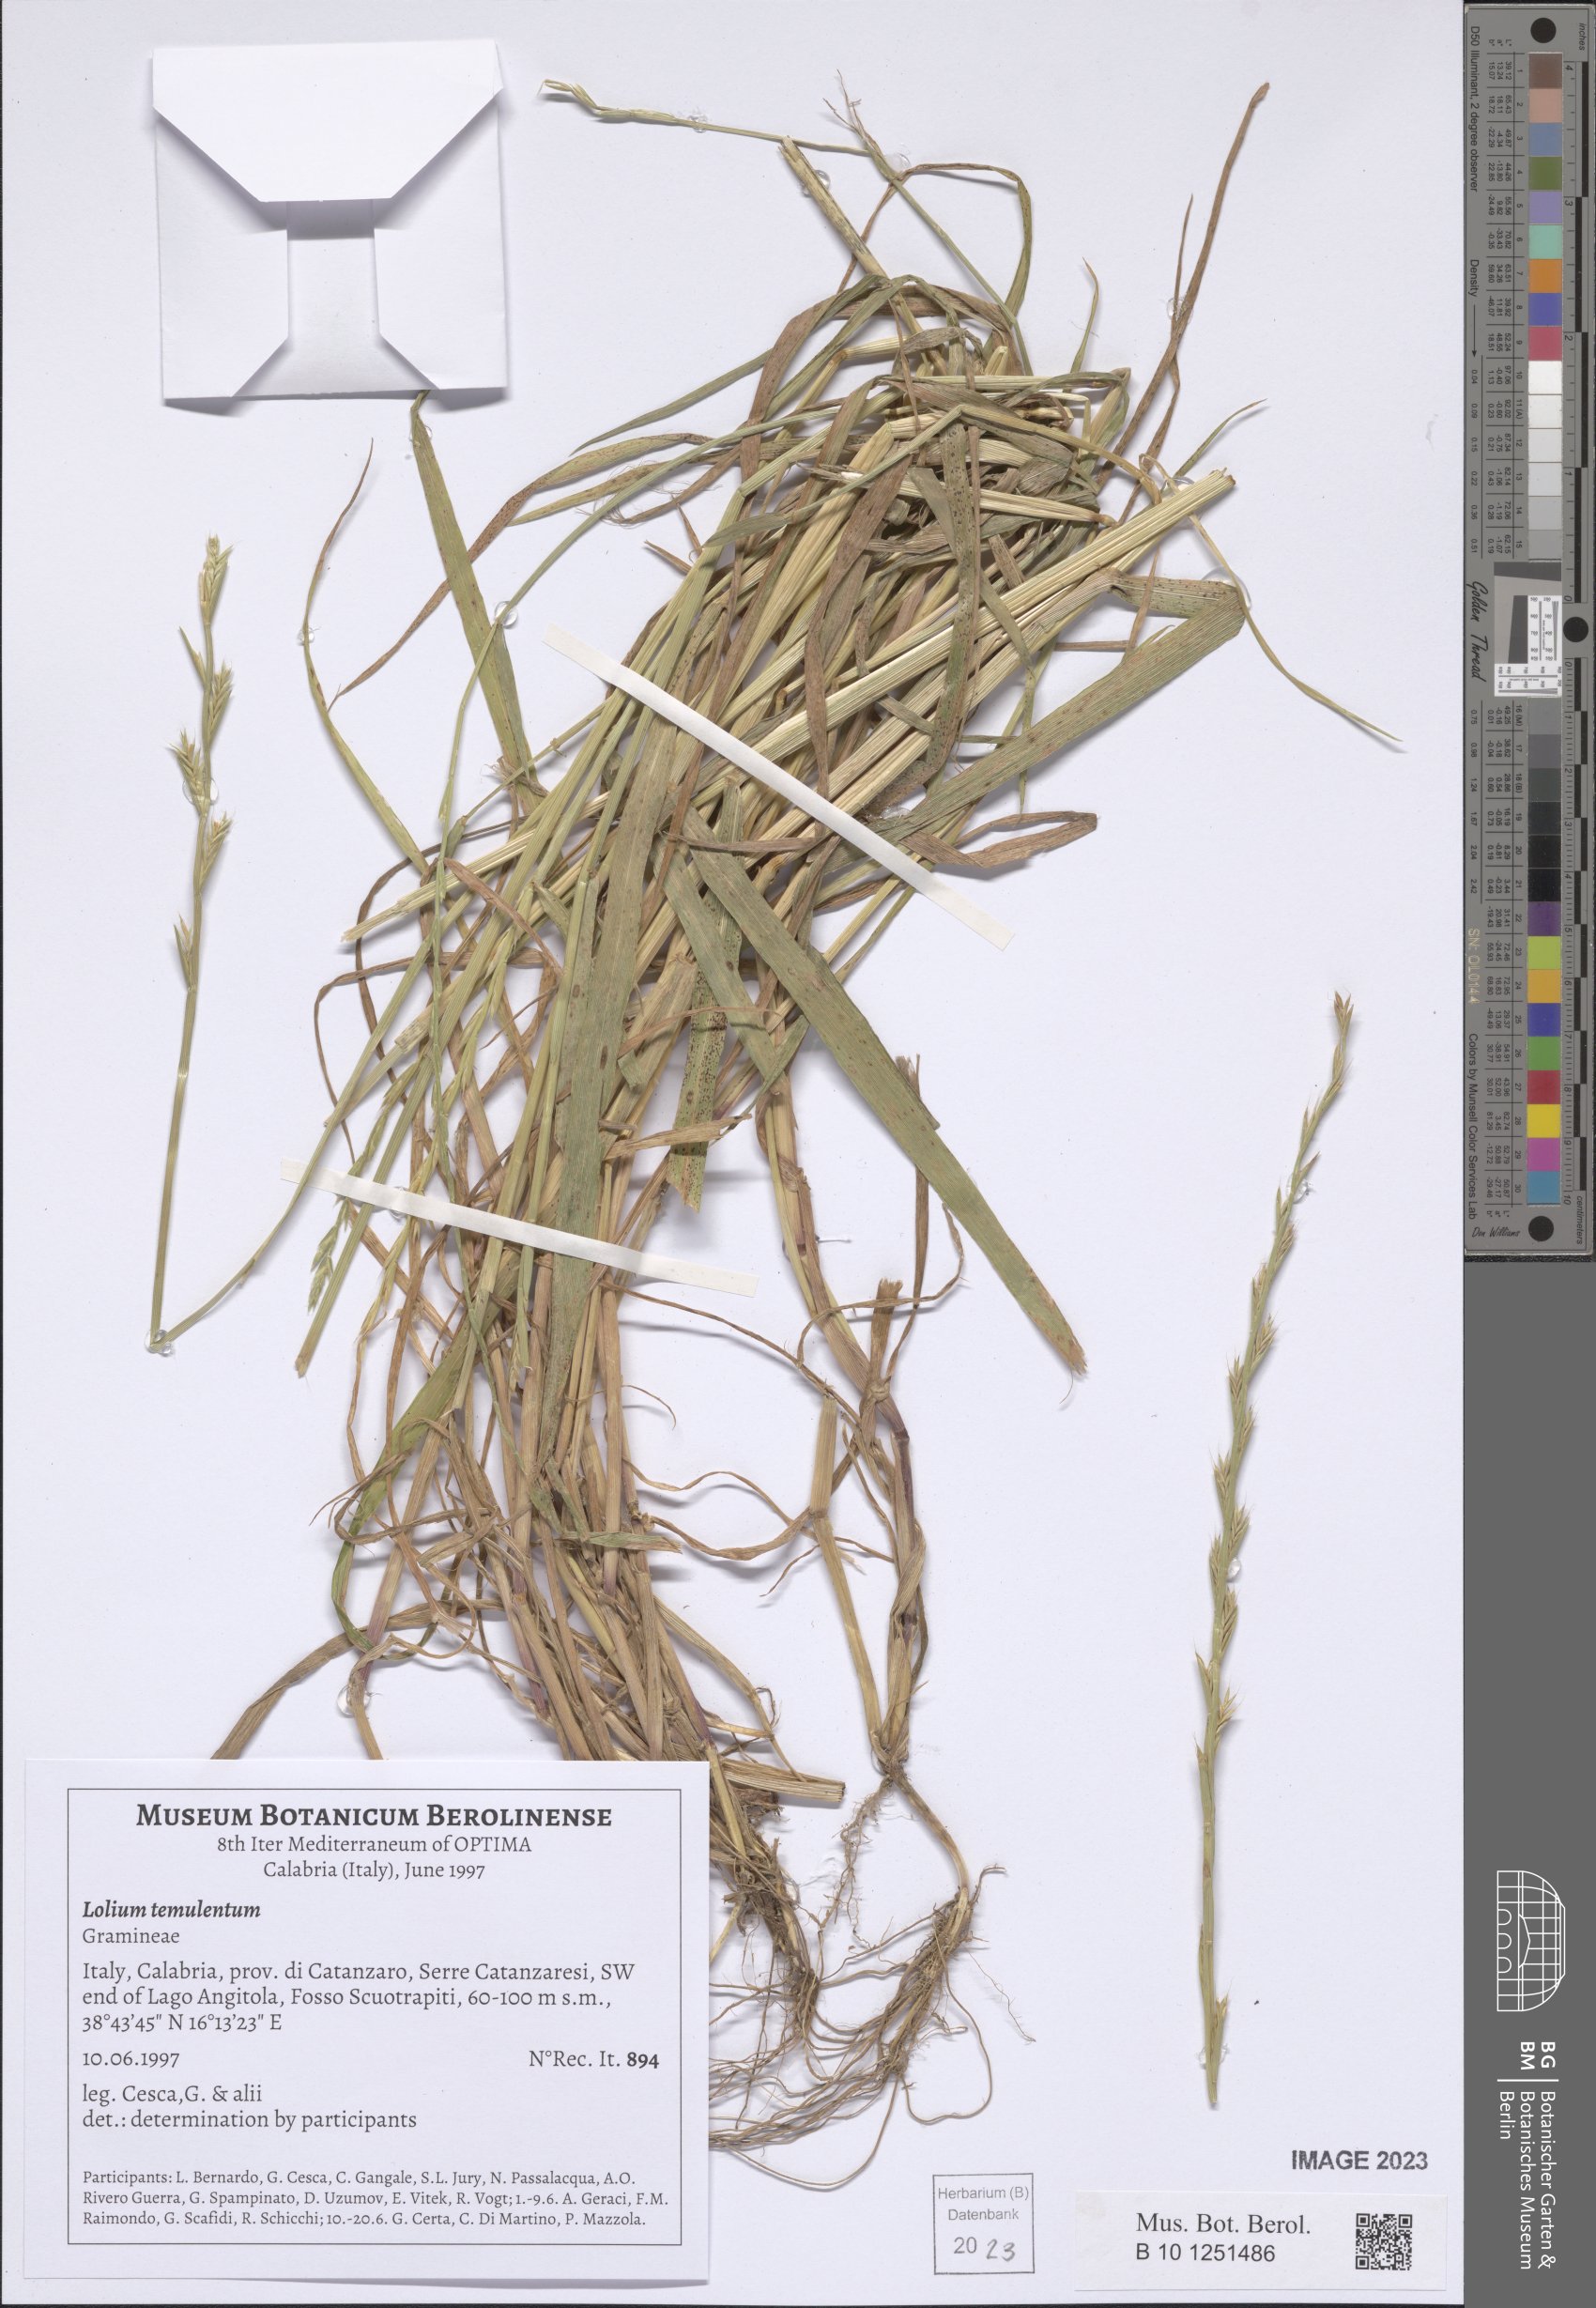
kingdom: Plantae
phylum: Tracheophyta
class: Liliopsida
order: Poales
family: Poaceae
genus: Lolium
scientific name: Lolium temulentum
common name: Darnel
